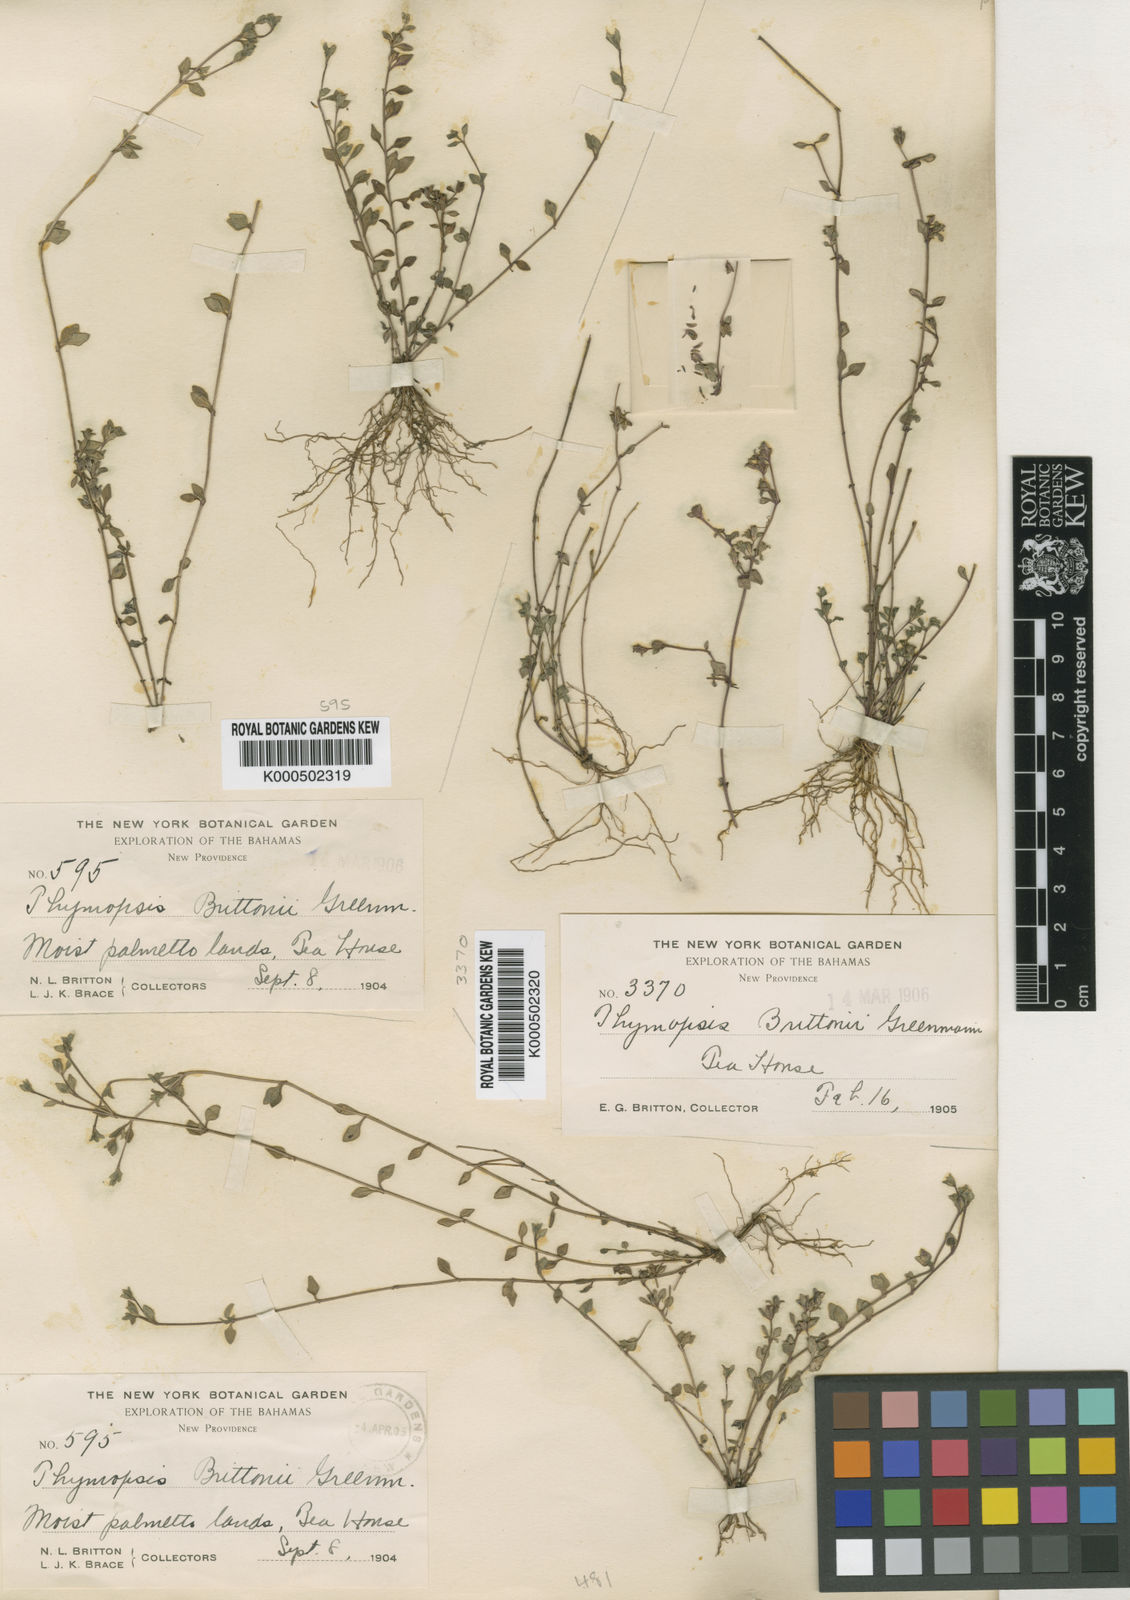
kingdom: Plantae
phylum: Tracheophyta
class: Magnoliopsida
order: Asterales
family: Asteraceae
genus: Thymopsis
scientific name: Thymopsis brittonii
